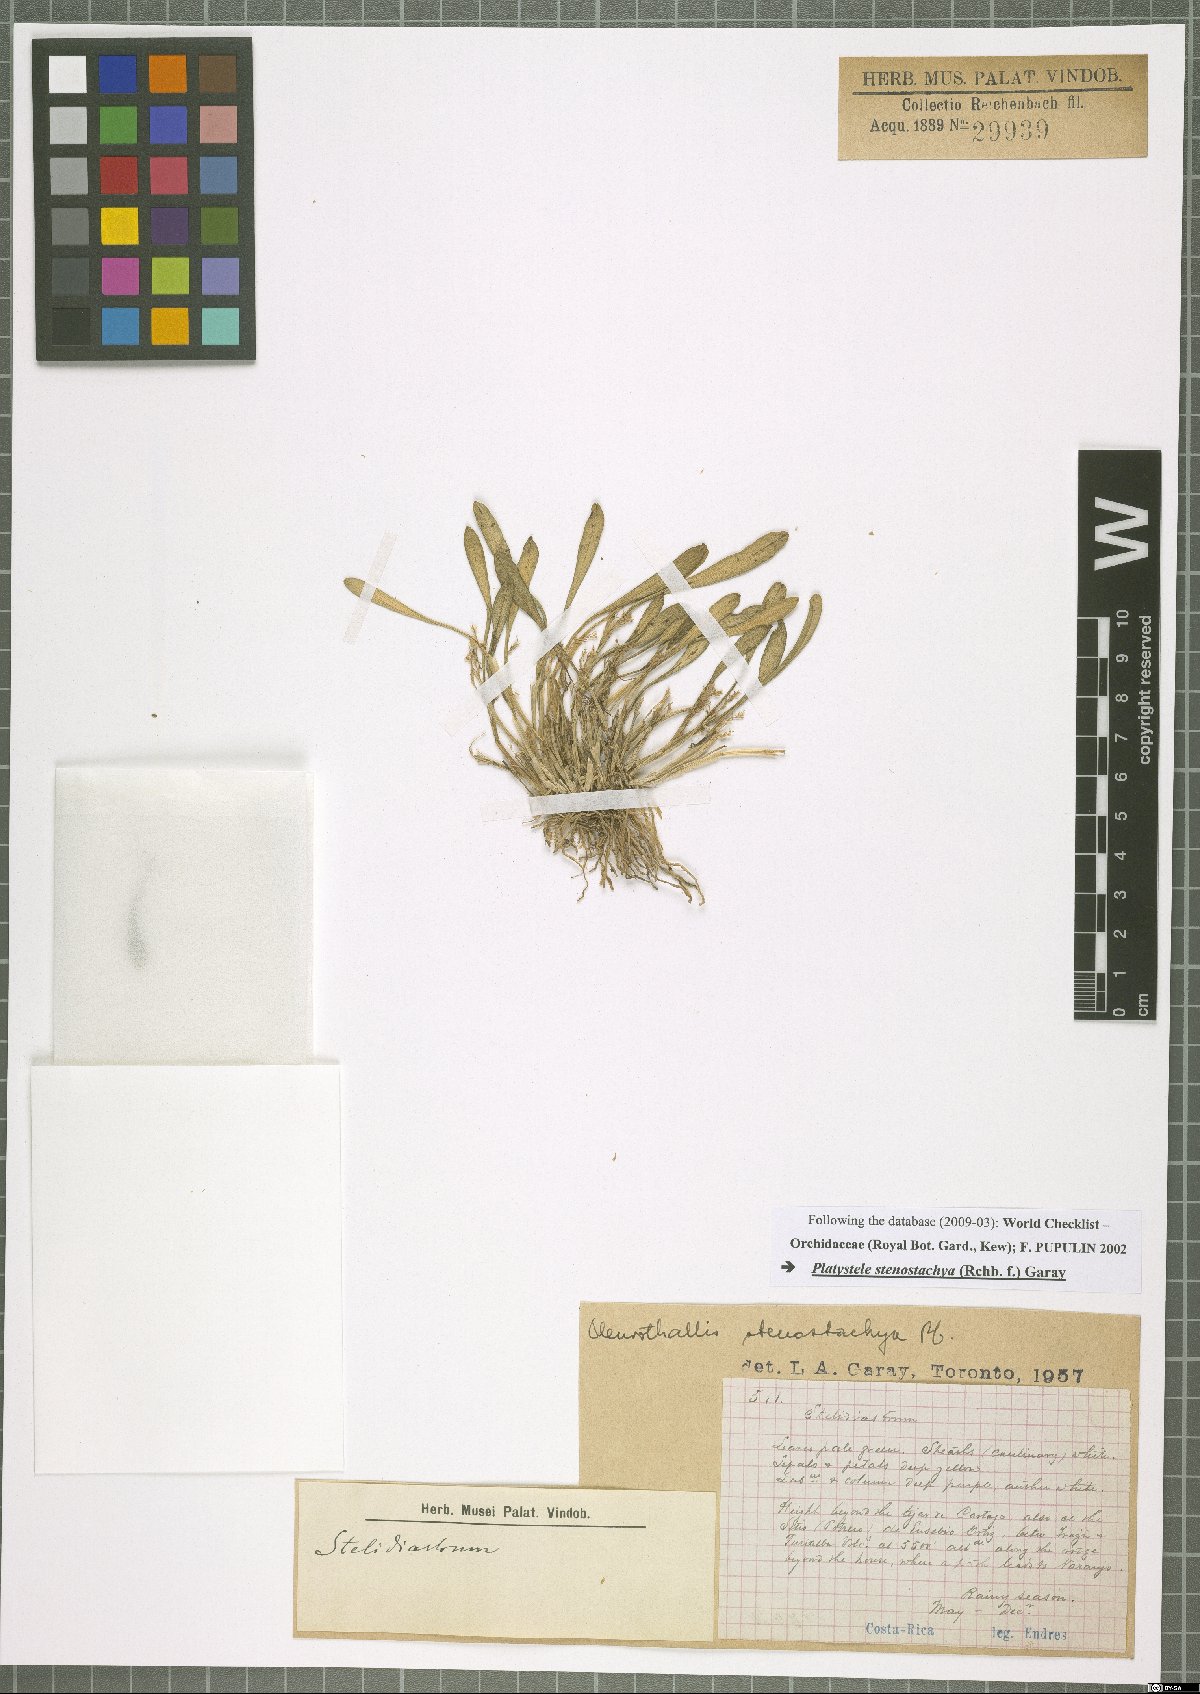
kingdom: Plantae
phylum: Tracheophyta
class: Liliopsida
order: Asparagales
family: Orchidaceae
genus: Platystele
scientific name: Platystele stenostachya
